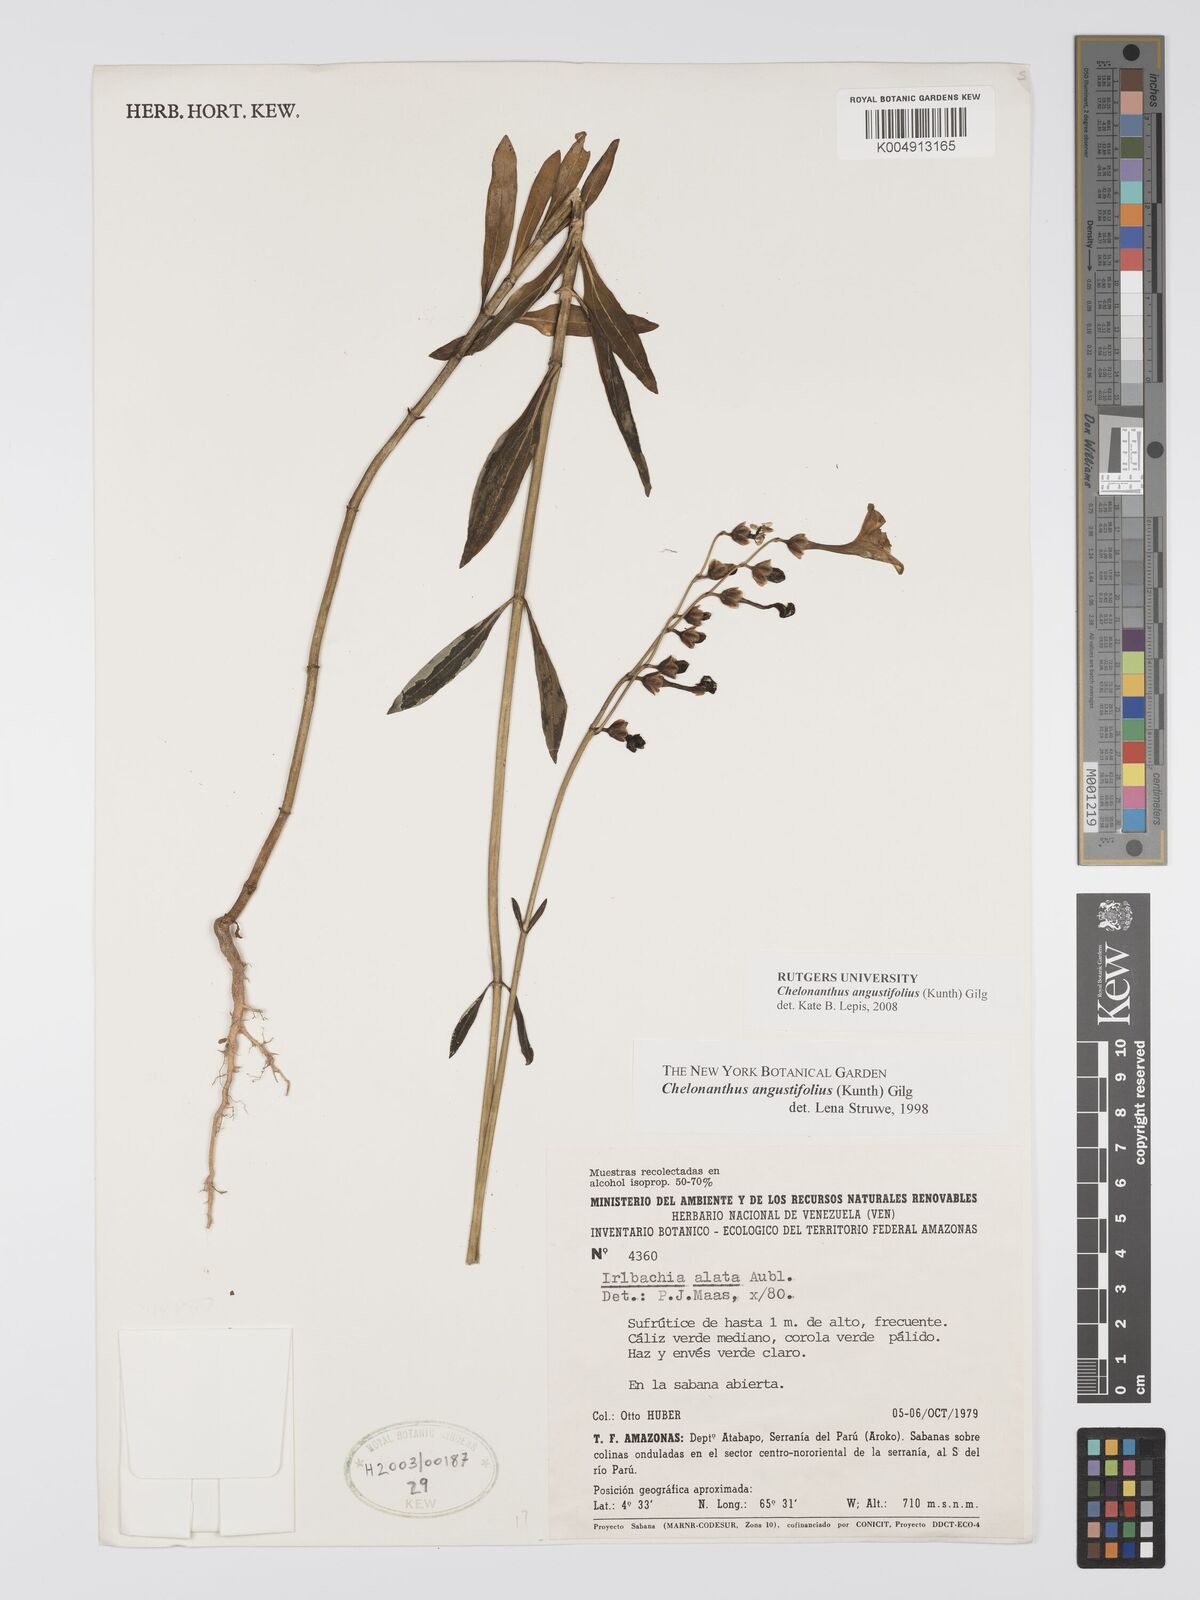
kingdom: Plantae
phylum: Tracheophyta
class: Magnoliopsida
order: Gentianales
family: Gentianaceae
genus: Chelonanthus
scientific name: Chelonanthus alatus
